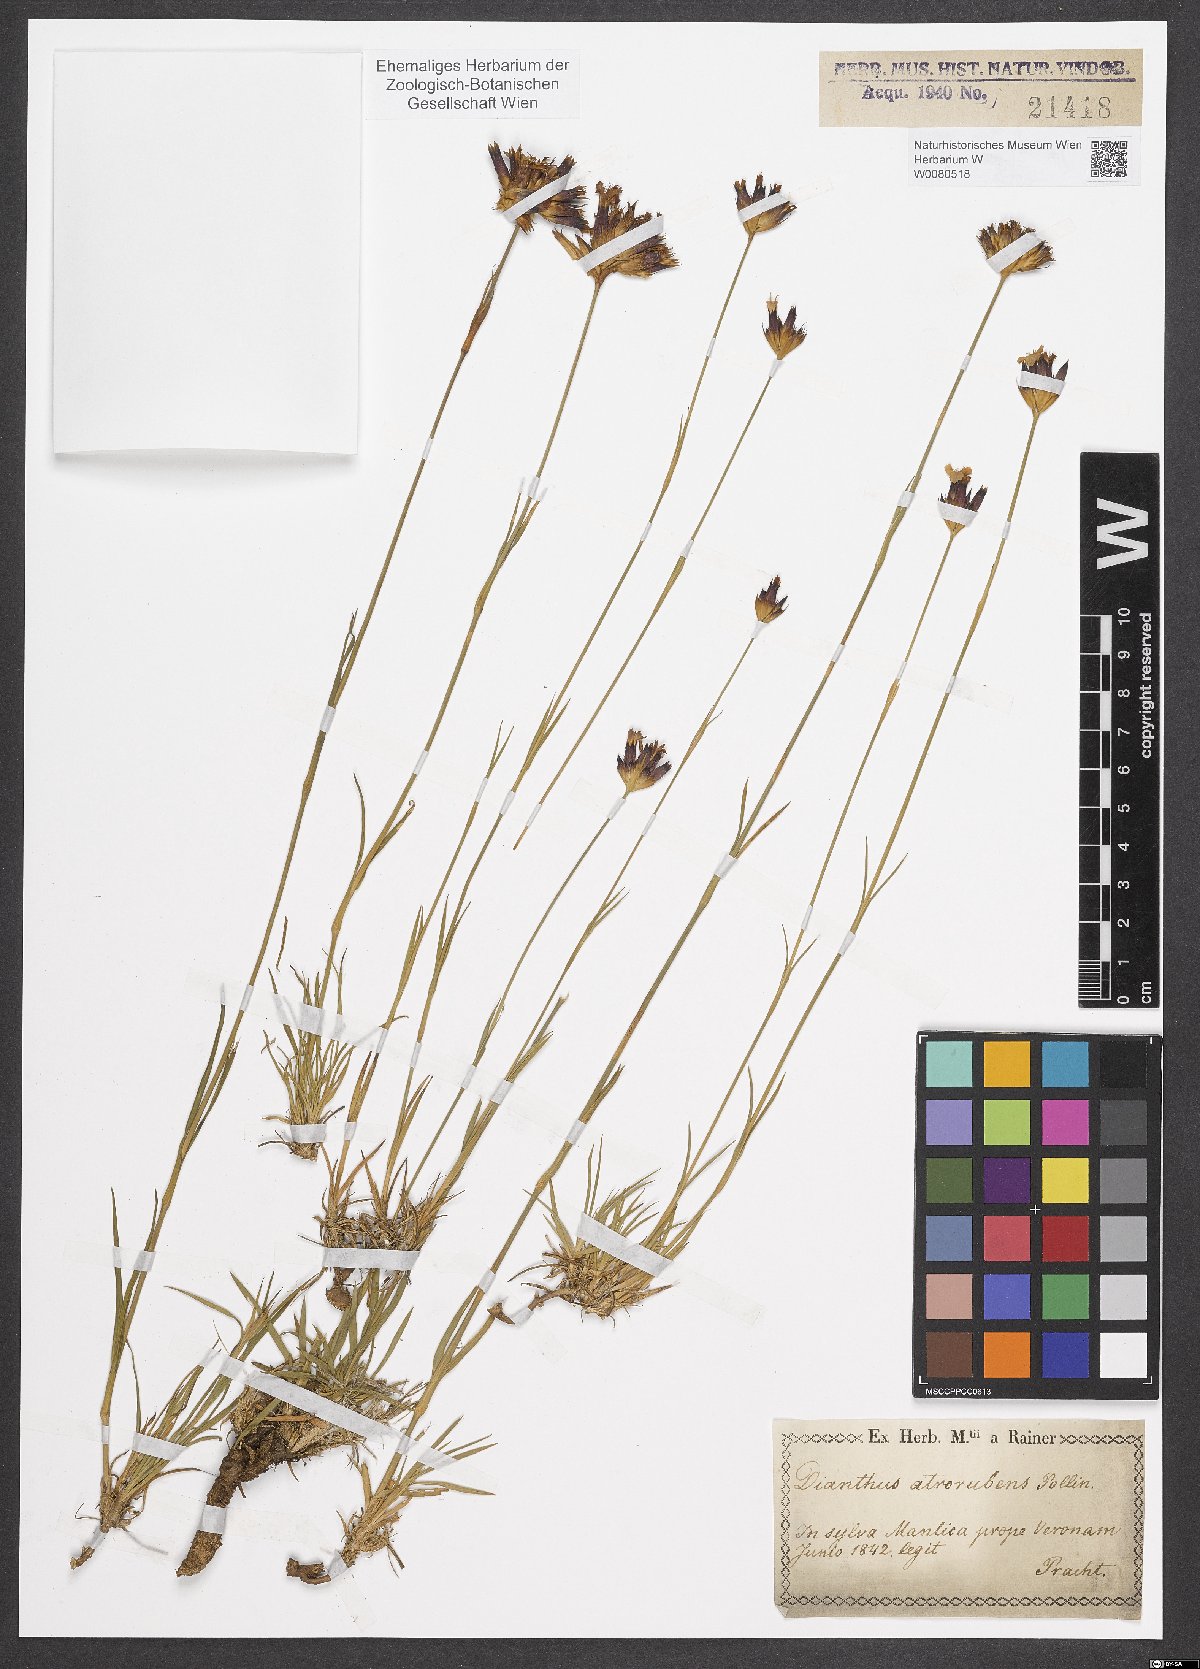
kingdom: Plantae
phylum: Tracheophyta
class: Magnoliopsida
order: Caryophyllales
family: Caryophyllaceae
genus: Dianthus
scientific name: Dianthus carthusianorum
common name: Carthusian pink
